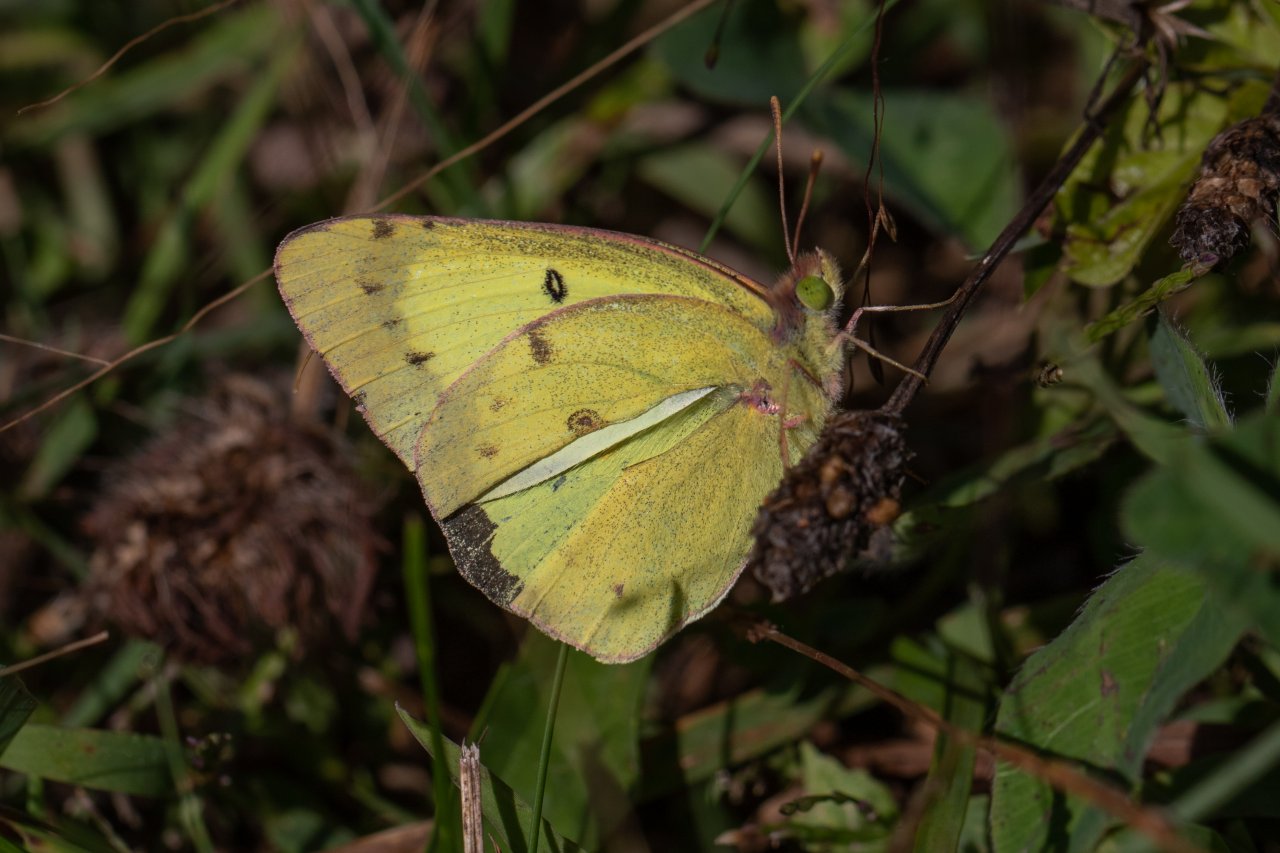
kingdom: Animalia
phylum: Arthropoda
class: Insecta
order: Lepidoptera
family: Pieridae
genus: Colias
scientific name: Colias philodice
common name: Clouded Sulphur
